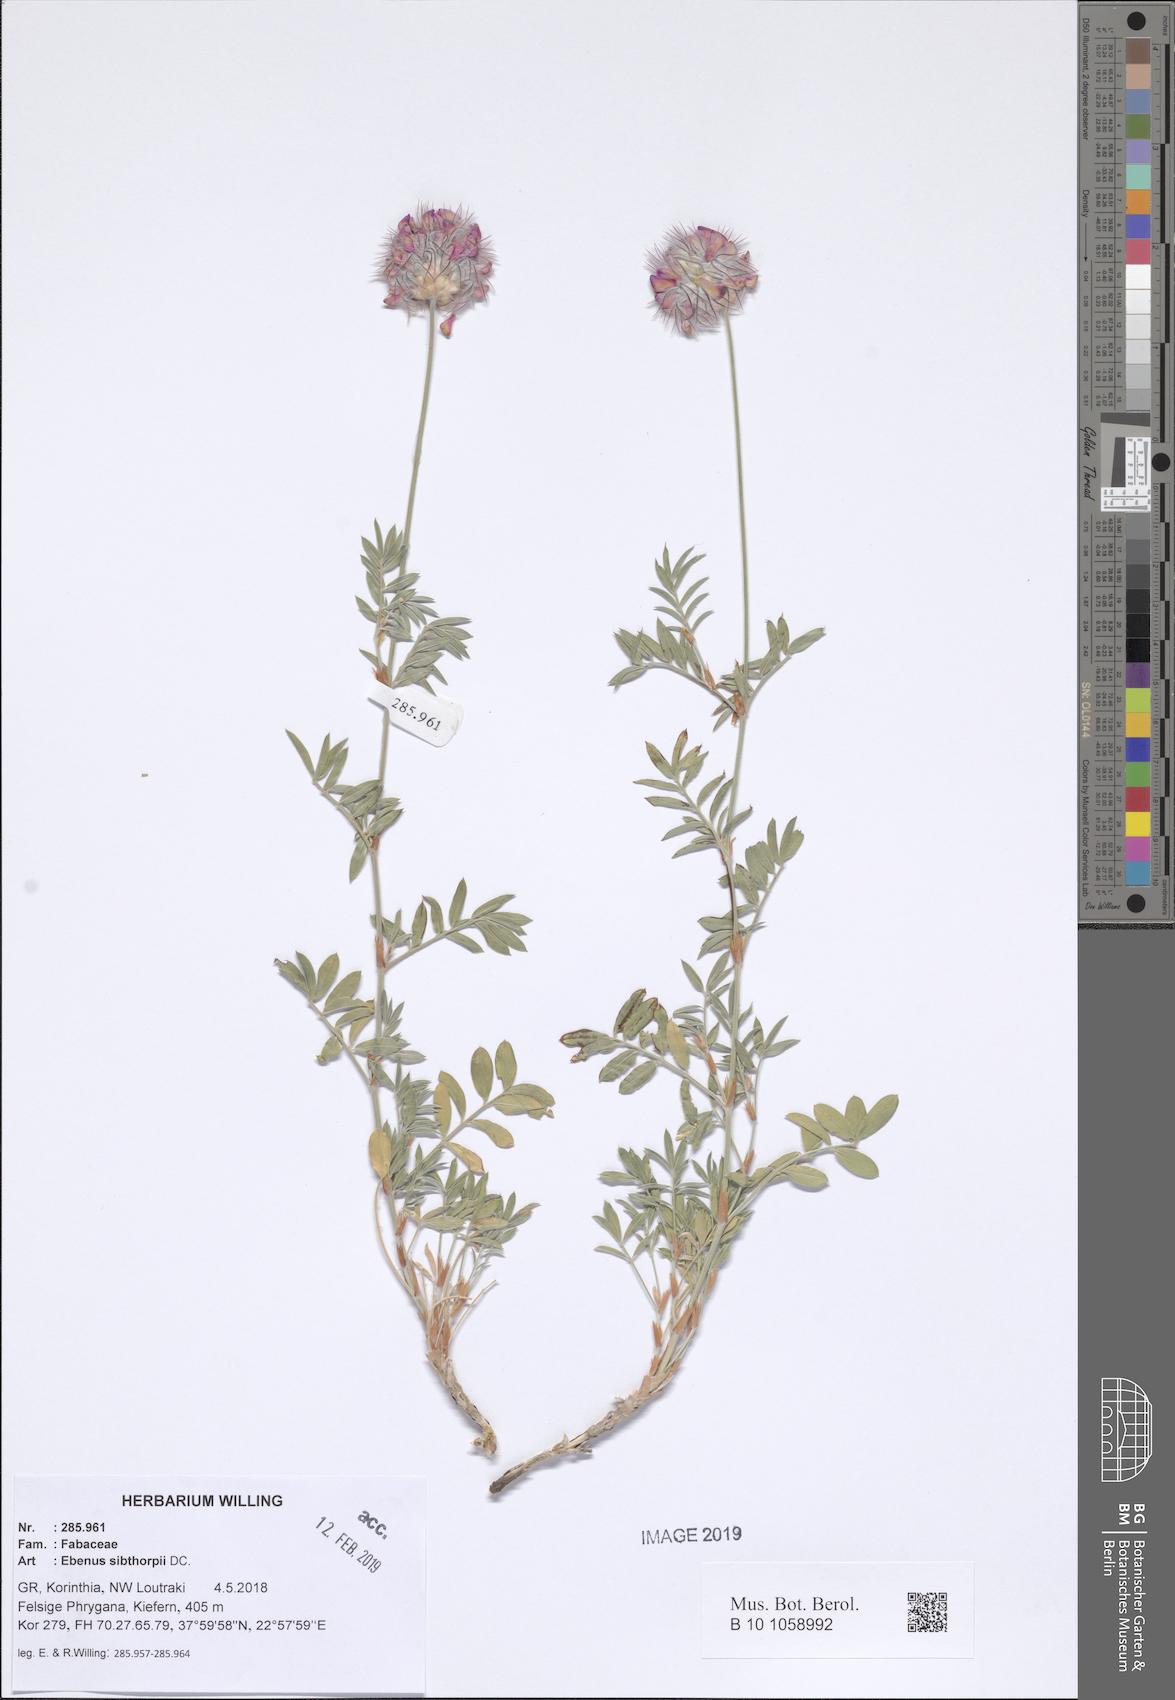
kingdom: Plantae
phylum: Tracheophyta
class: Magnoliopsida
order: Fabales
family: Fabaceae
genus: Ebenus
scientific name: Ebenus sibthorpii
